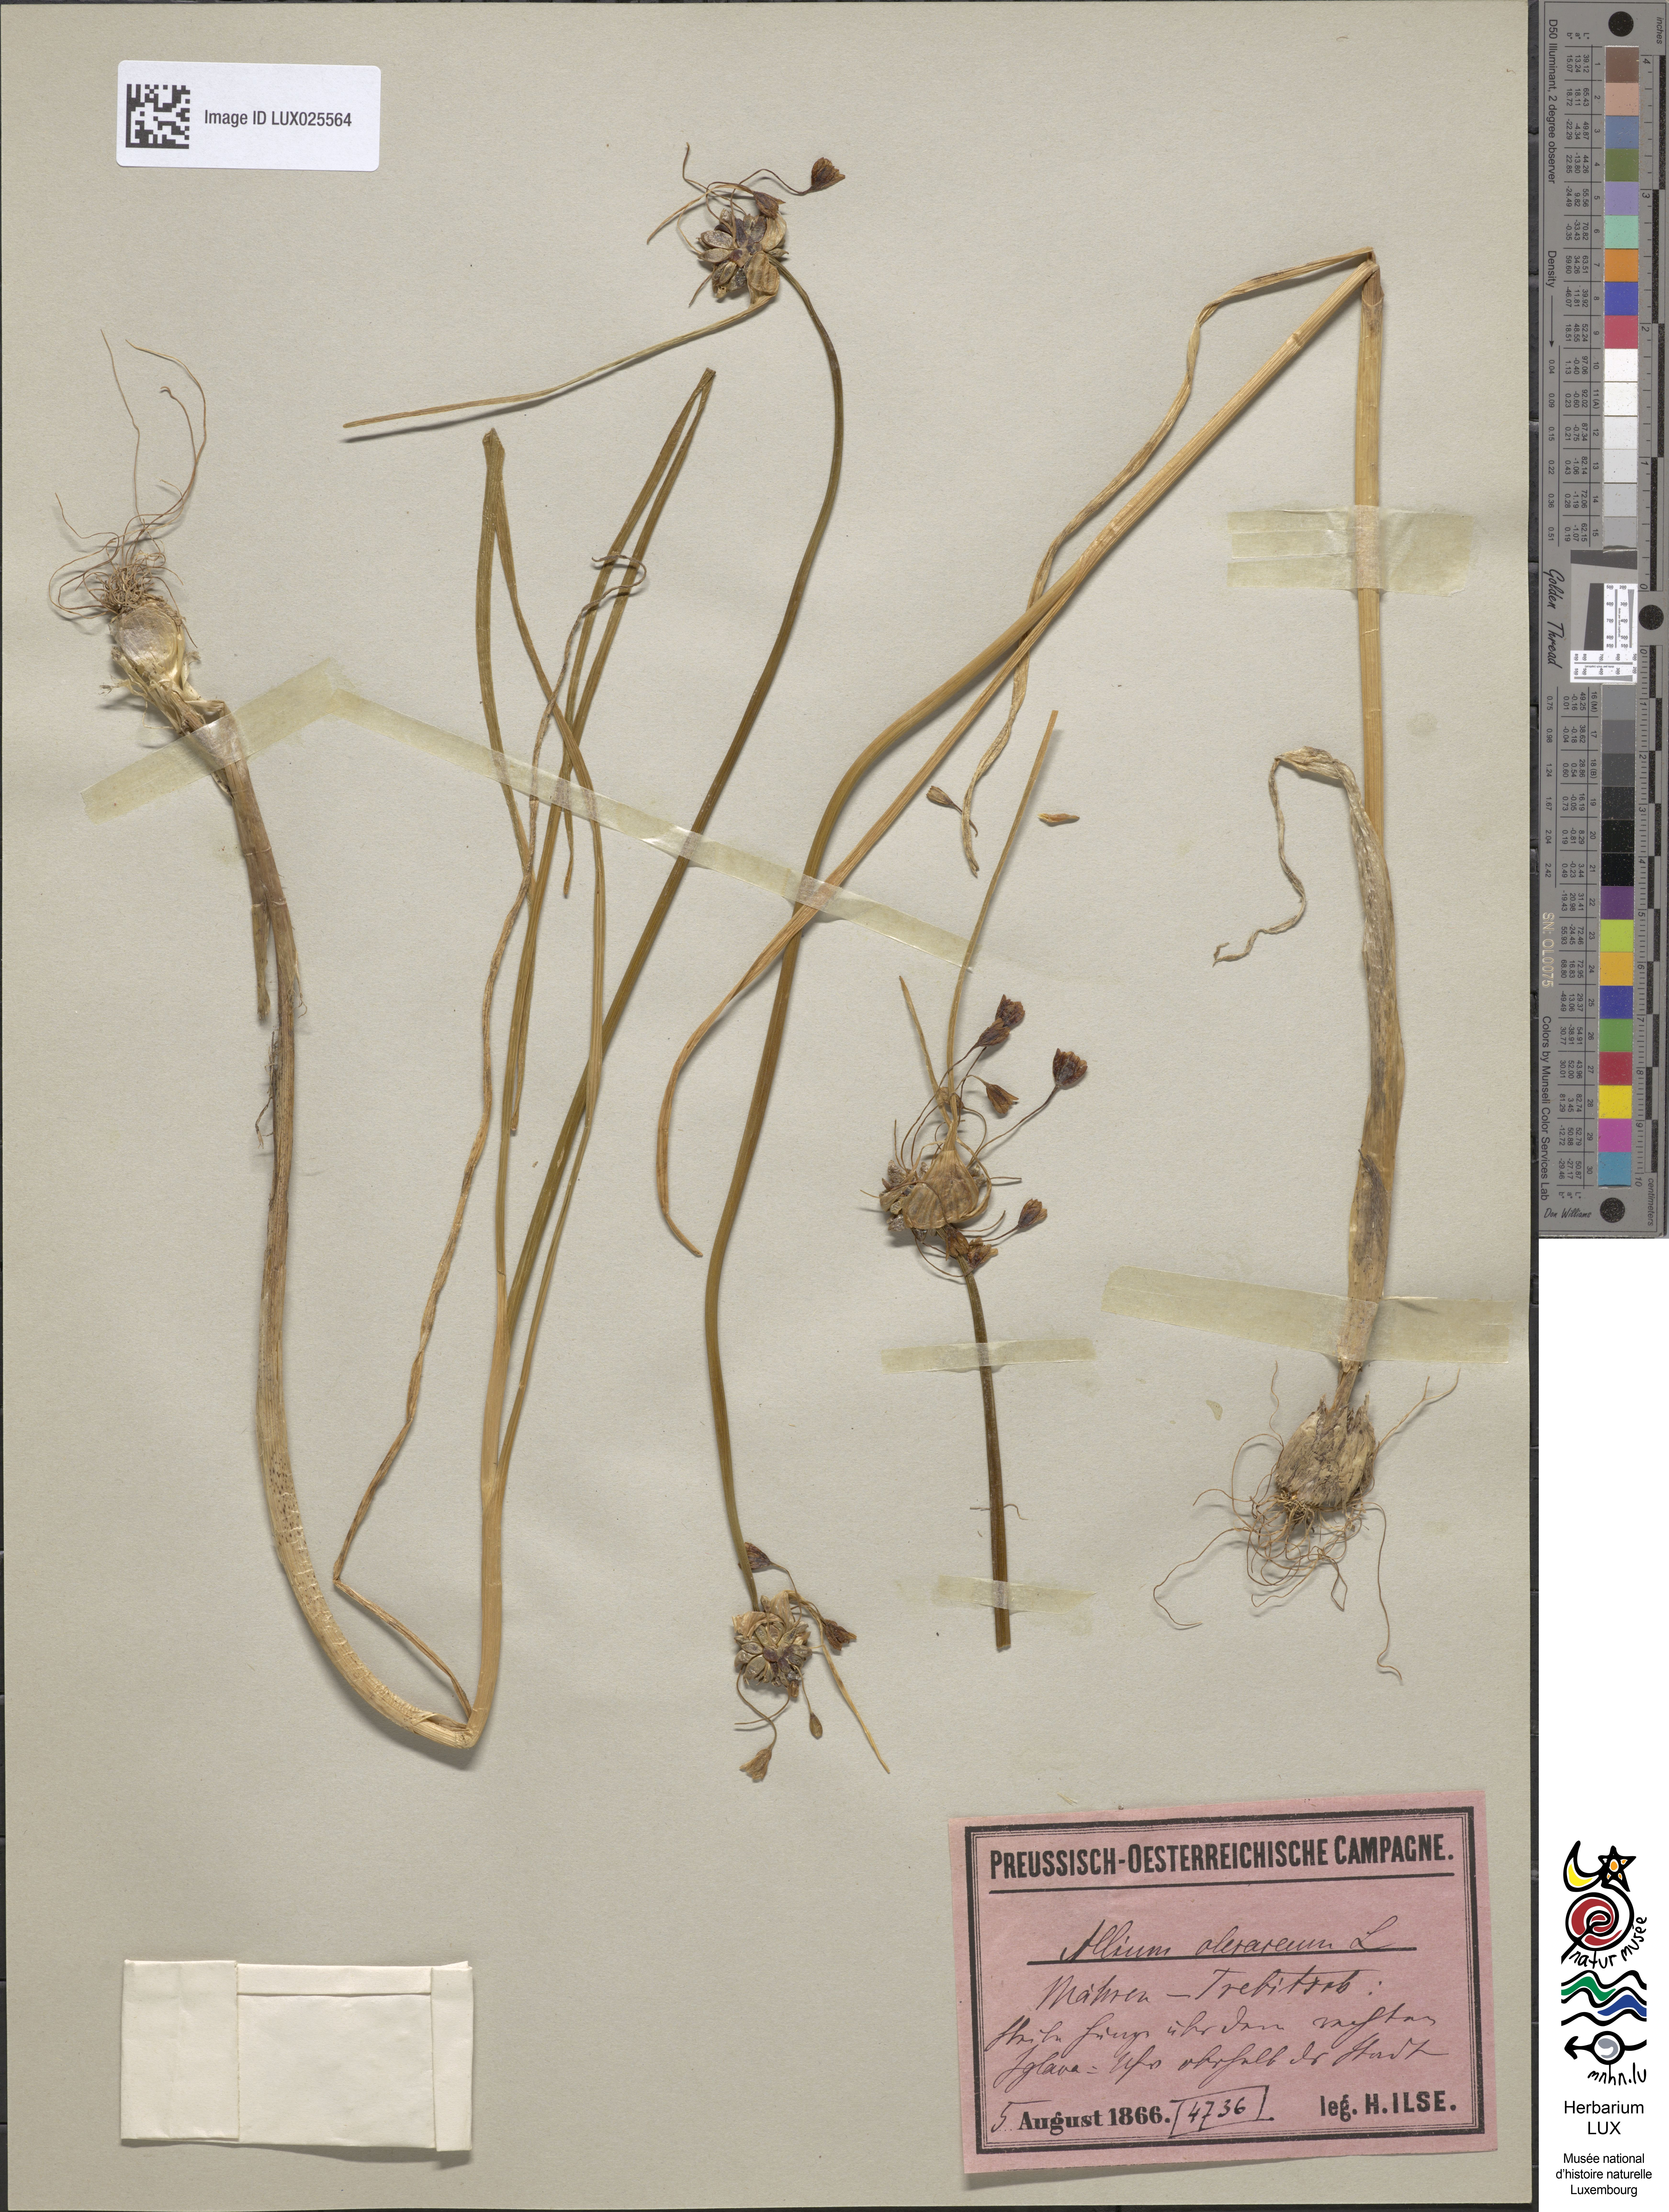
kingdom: Plantae
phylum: Tracheophyta
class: Liliopsida
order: Asparagales
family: Amaryllidaceae
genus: Allium
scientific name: Allium oleraceum
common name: Field garlic
